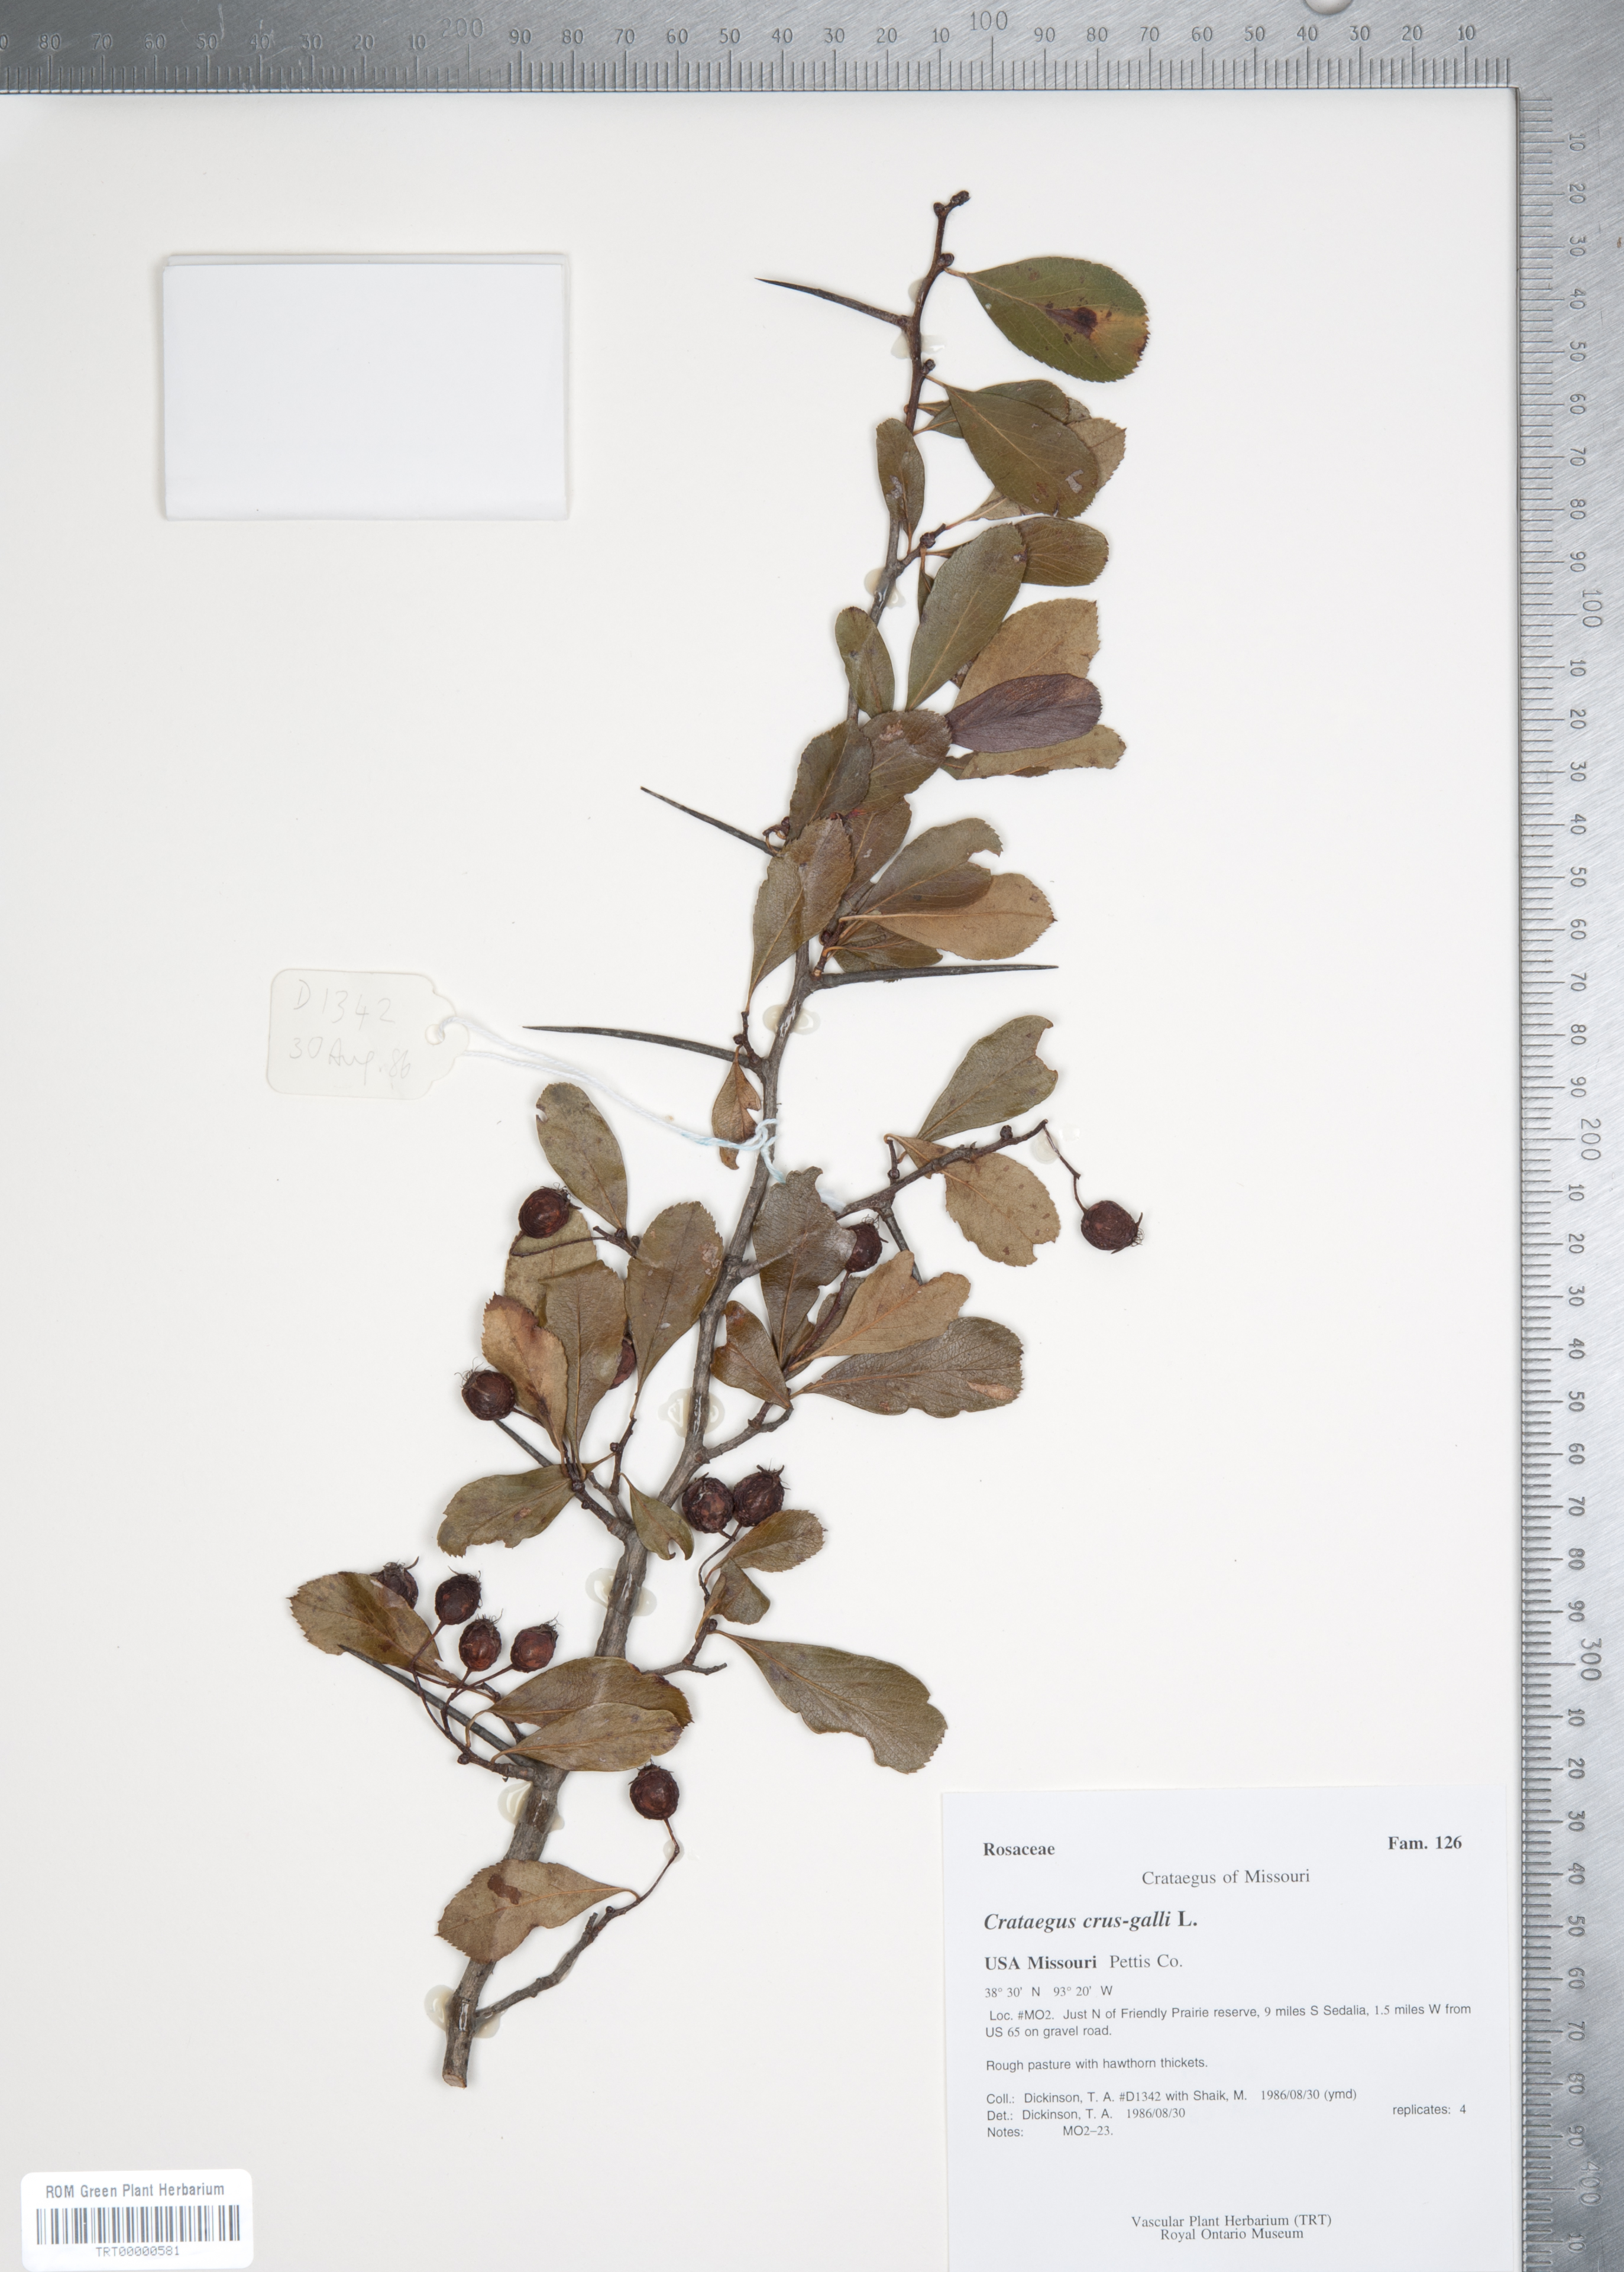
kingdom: Plantae
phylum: Tracheophyta
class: Magnoliopsida
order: Rosales
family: Rosaceae
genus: Crataegus
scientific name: Crataegus crus-galli
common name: Cockspurthorn
